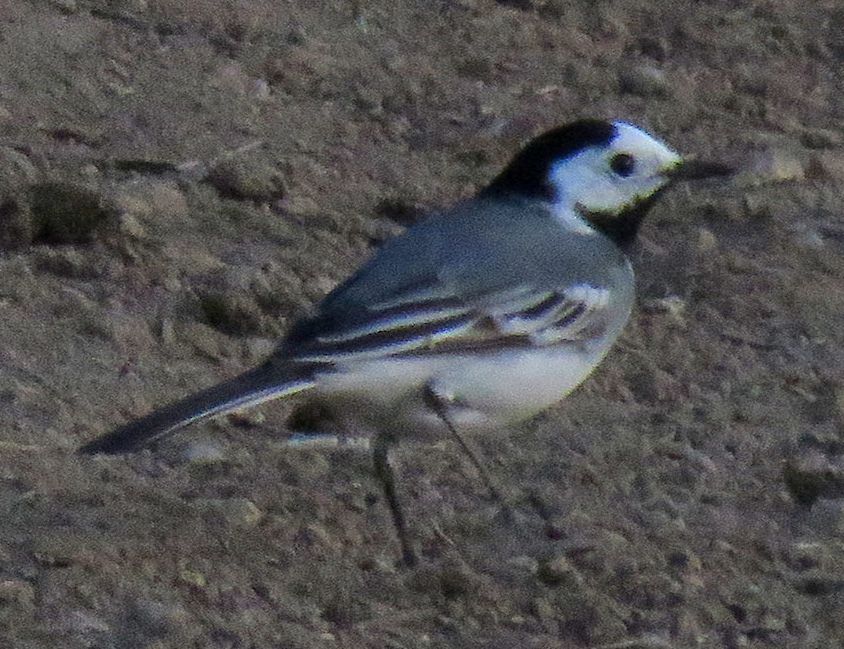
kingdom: Animalia
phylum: Chordata
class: Aves
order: Passeriformes
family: Motacillidae
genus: Motacilla
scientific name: Motacilla alba
